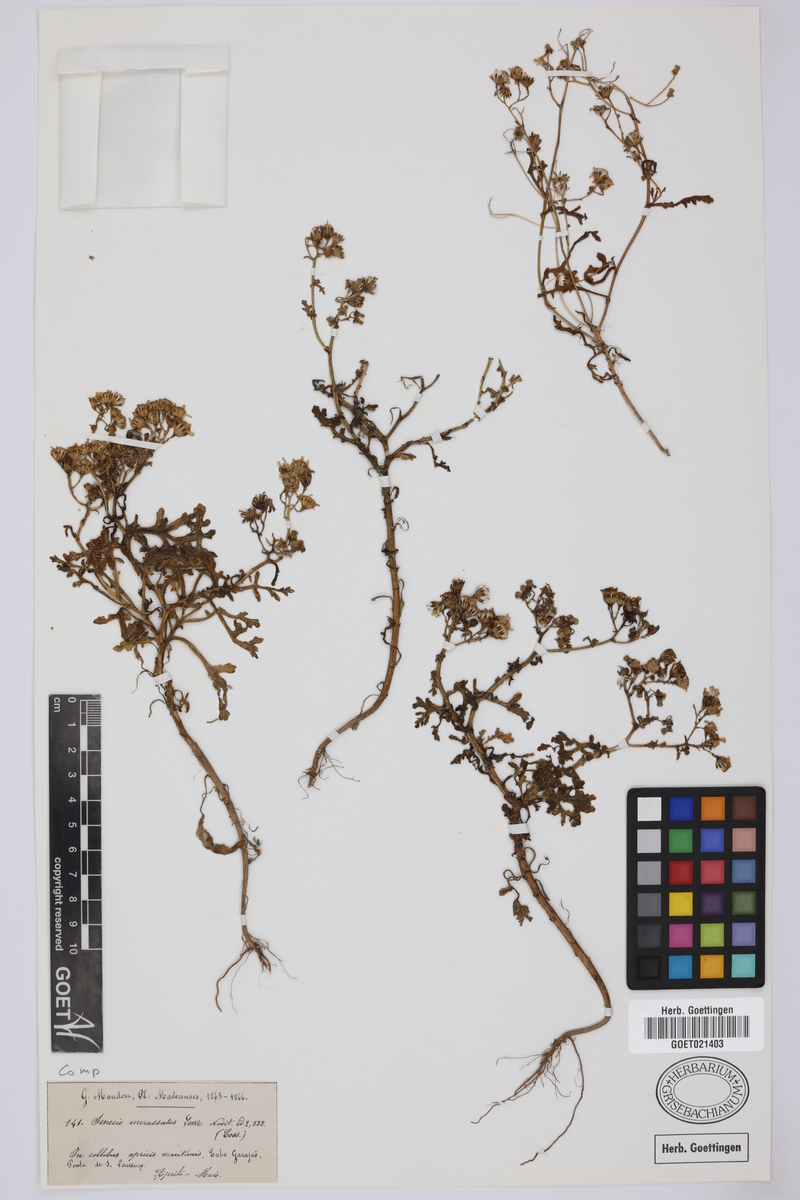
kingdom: Plantae
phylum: Tracheophyta
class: Magnoliopsida
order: Asterales
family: Asteraceae
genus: Senecio
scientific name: Senecio incrassatus
